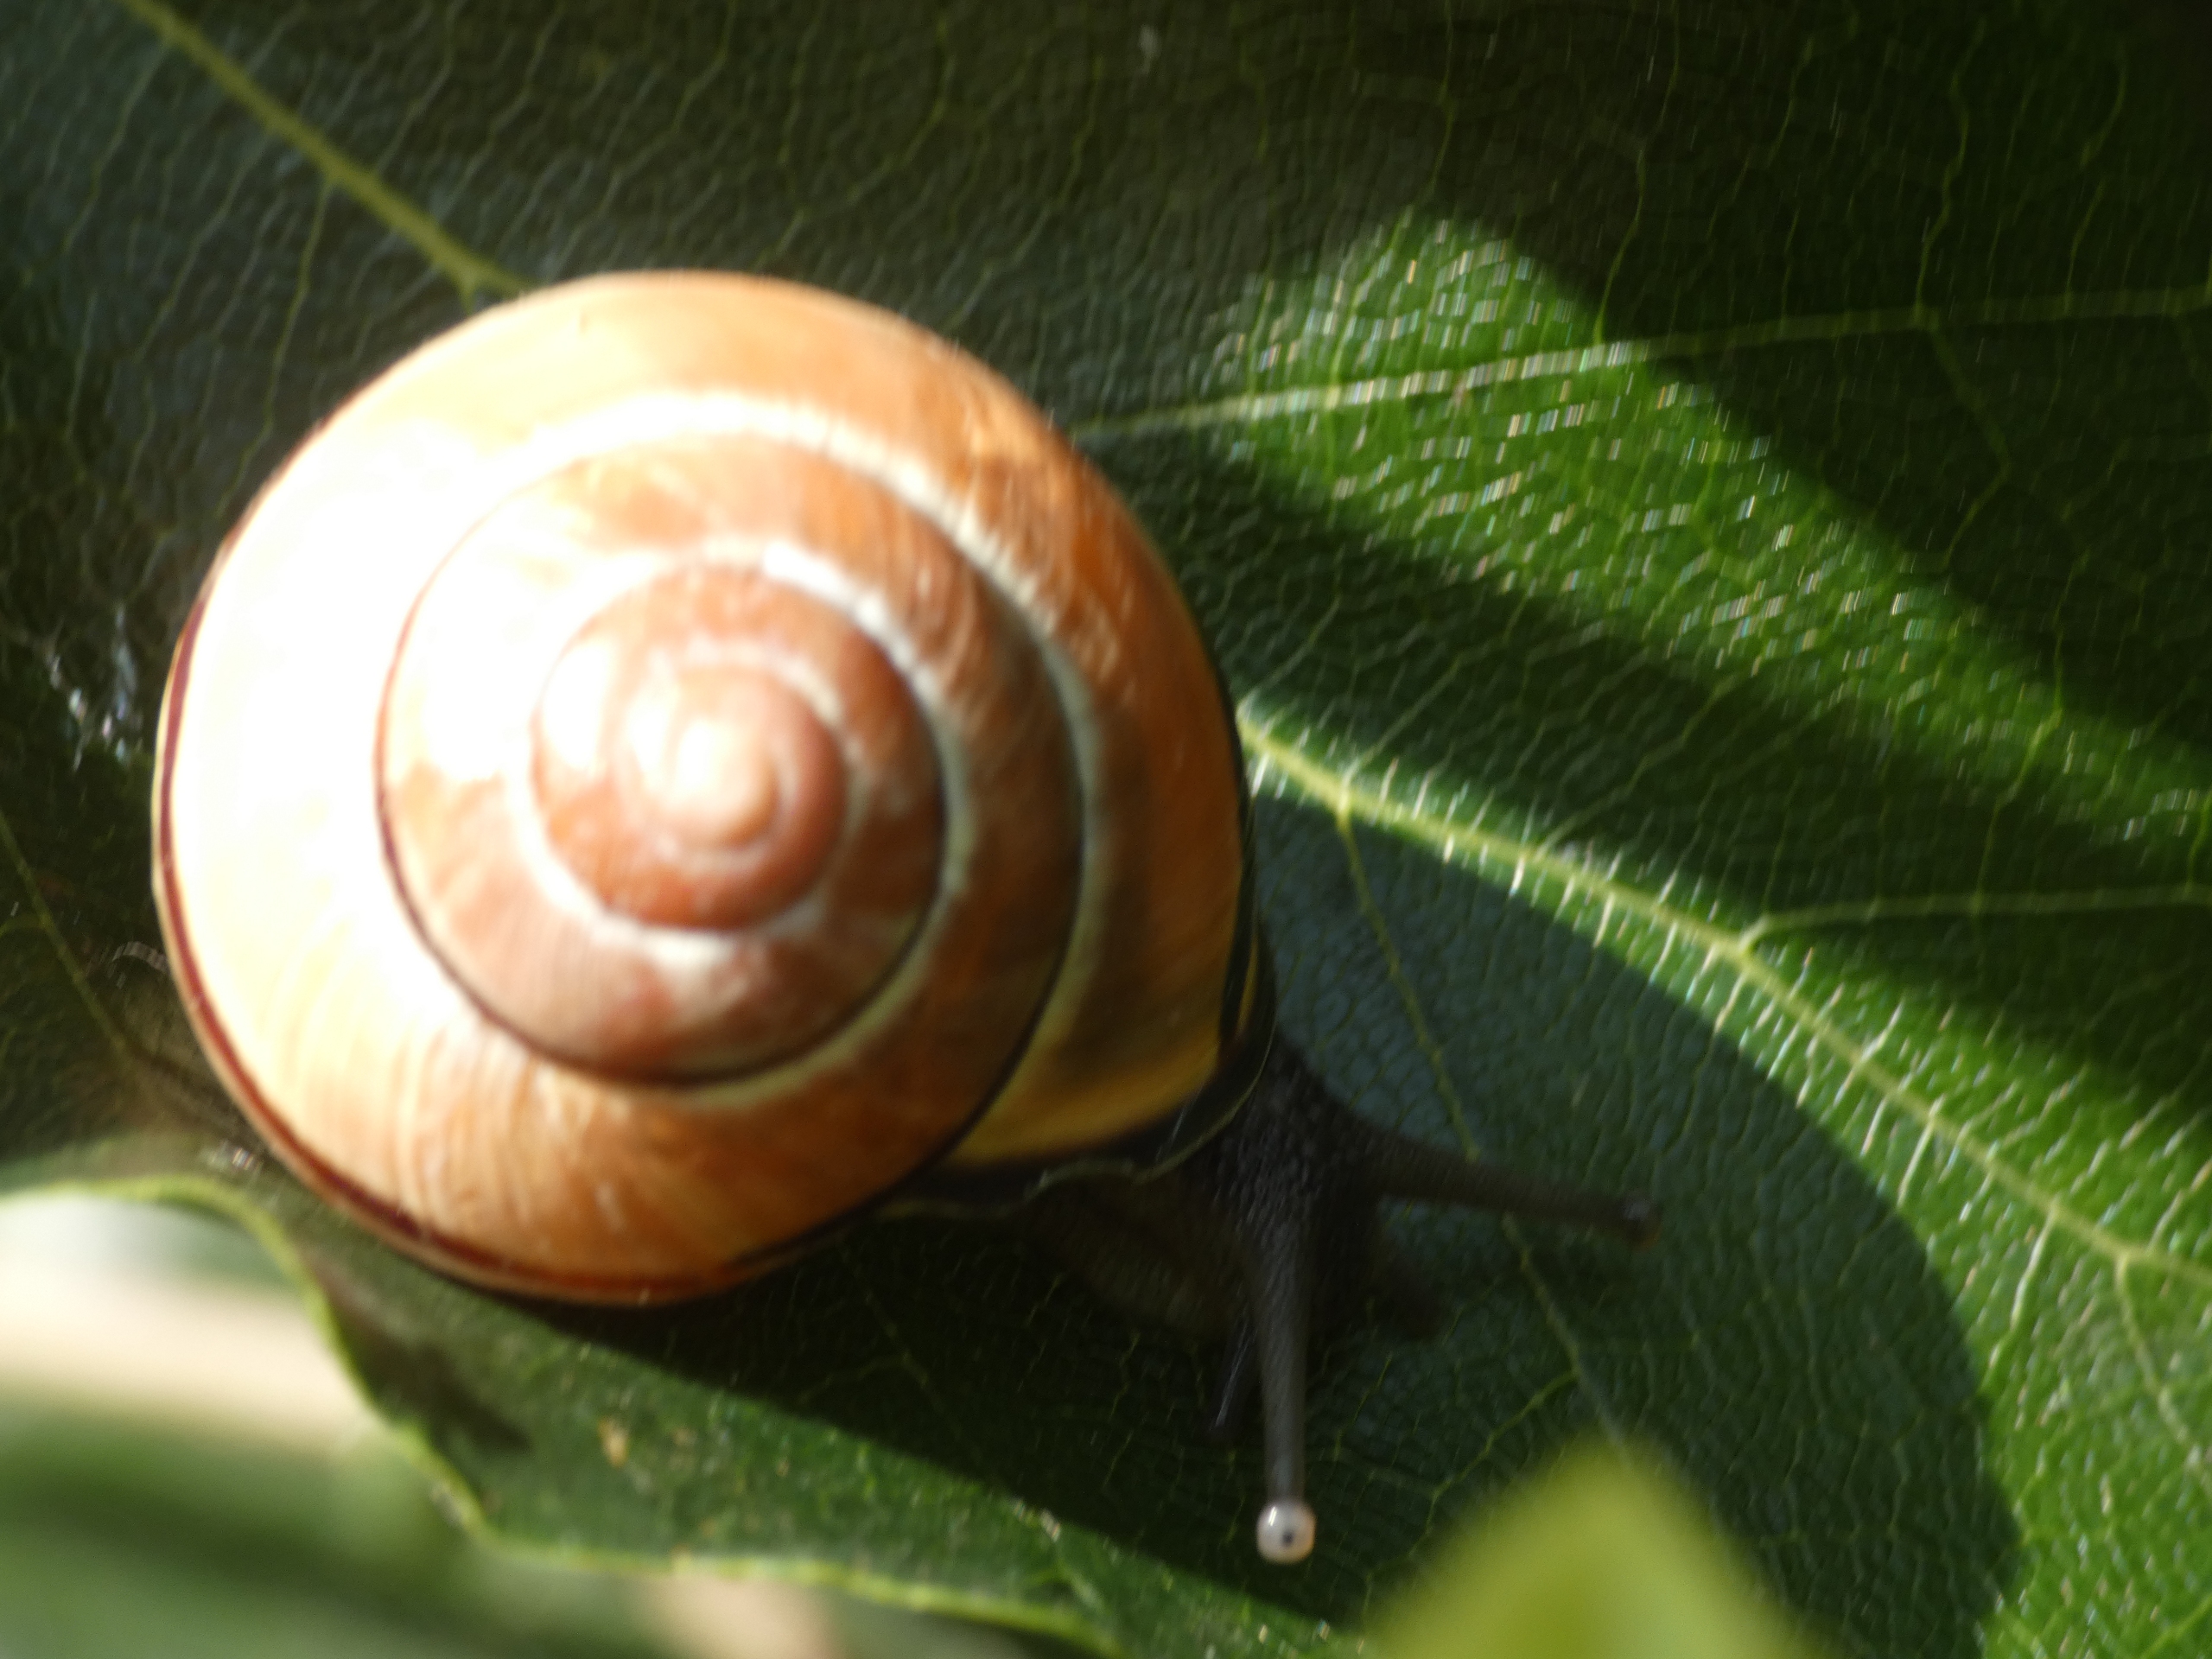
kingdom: Animalia
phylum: Mollusca
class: Gastropoda
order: Stylommatophora
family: Helicidae
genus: Cepaea
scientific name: Cepaea nemoralis
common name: Lundsnegl
